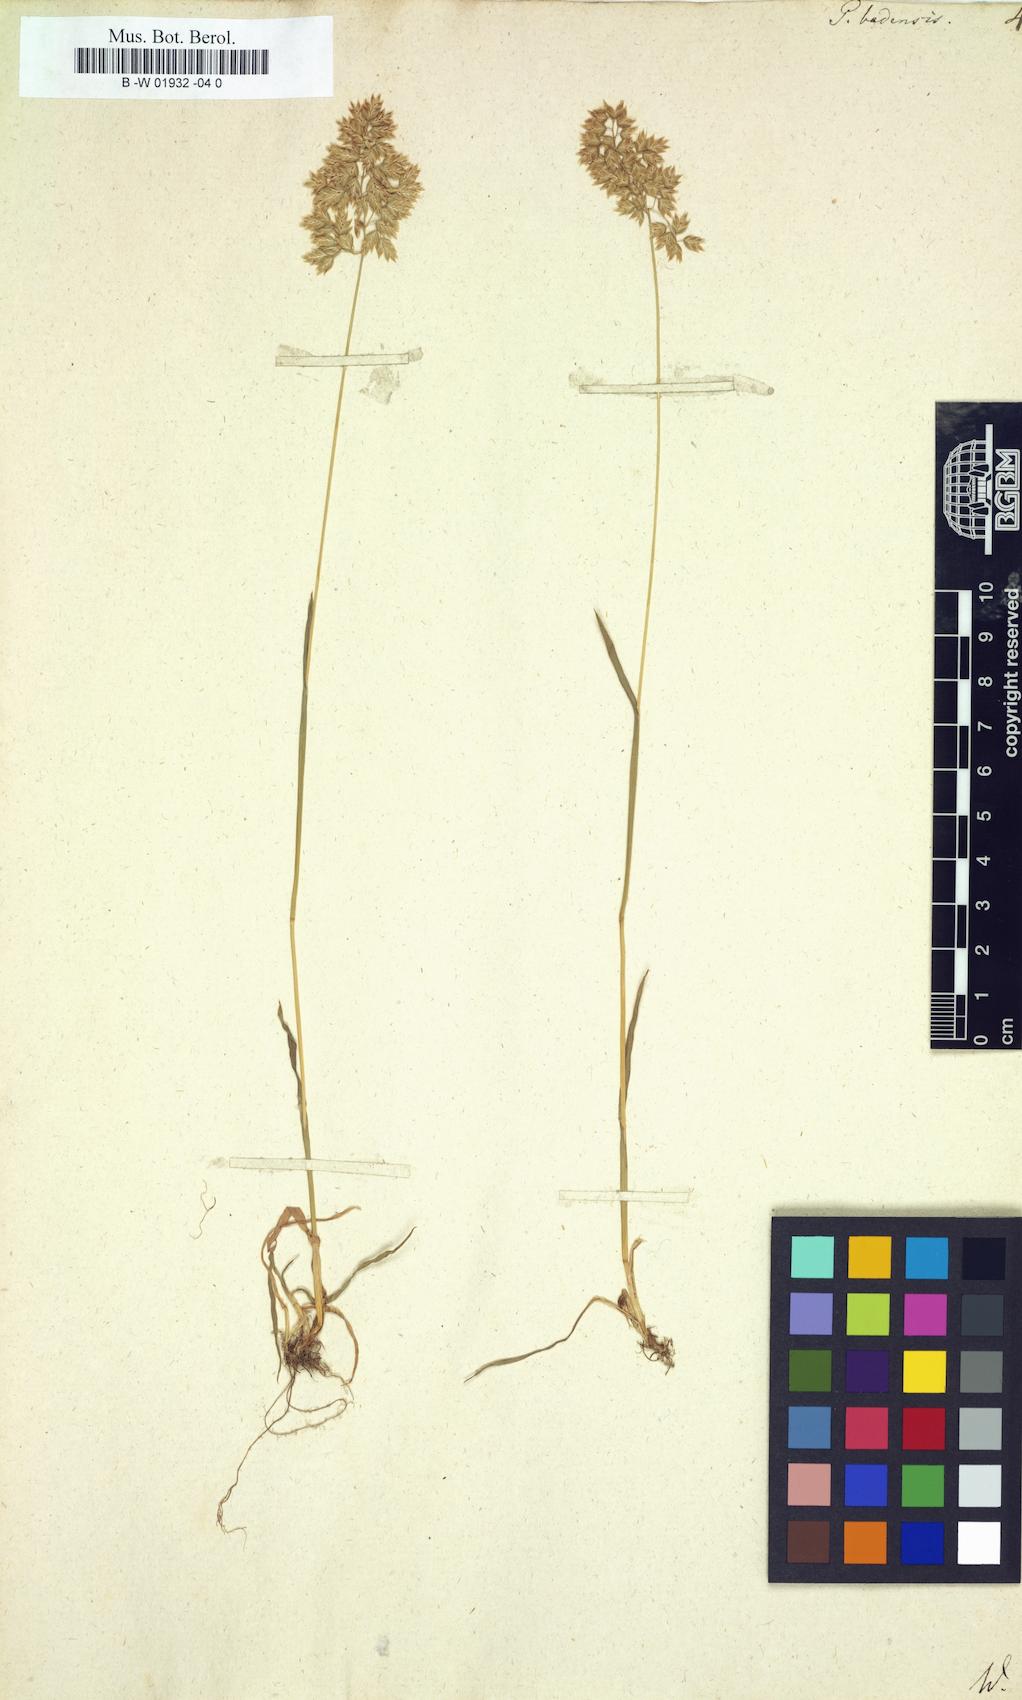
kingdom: Plantae
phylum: Tracheophyta
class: Liliopsida
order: Poales
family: Poaceae
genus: Poa
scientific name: Poa badensis
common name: Baden's bluegrass
